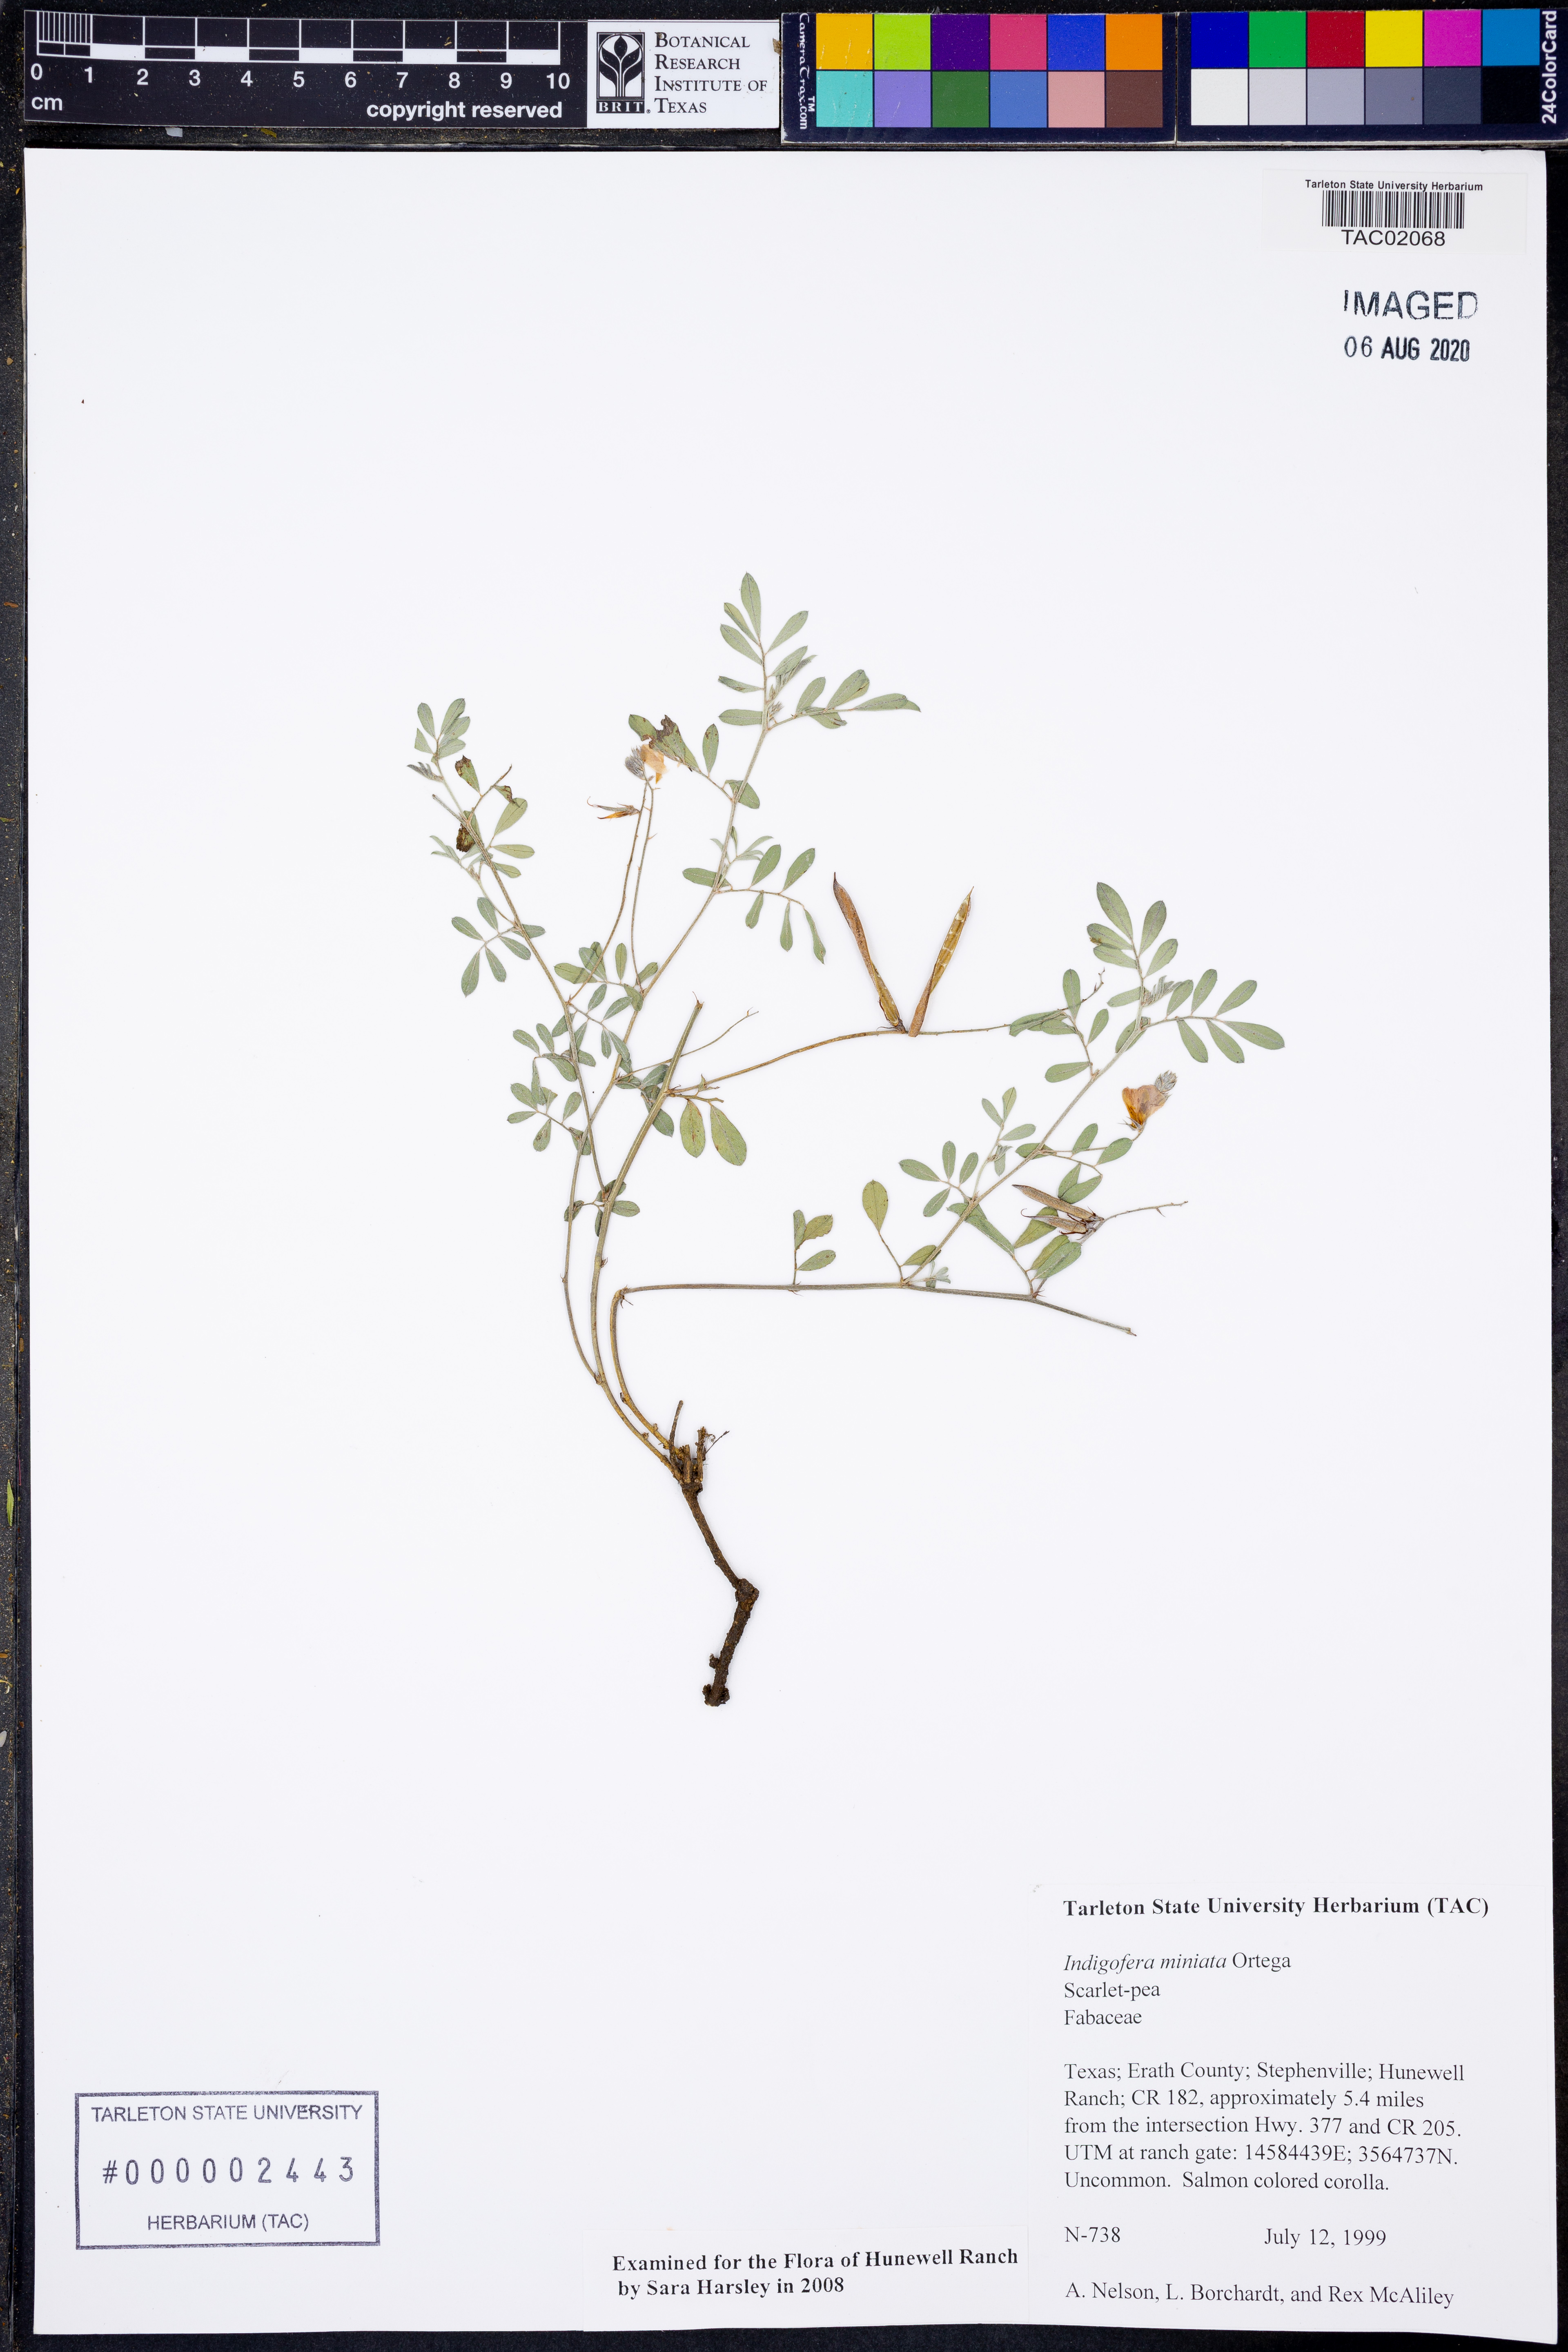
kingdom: Plantae
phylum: Tracheophyta
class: Magnoliopsida
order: Fabales
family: Fabaceae
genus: Indigofera
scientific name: Indigofera miniata
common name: Coast indigo
